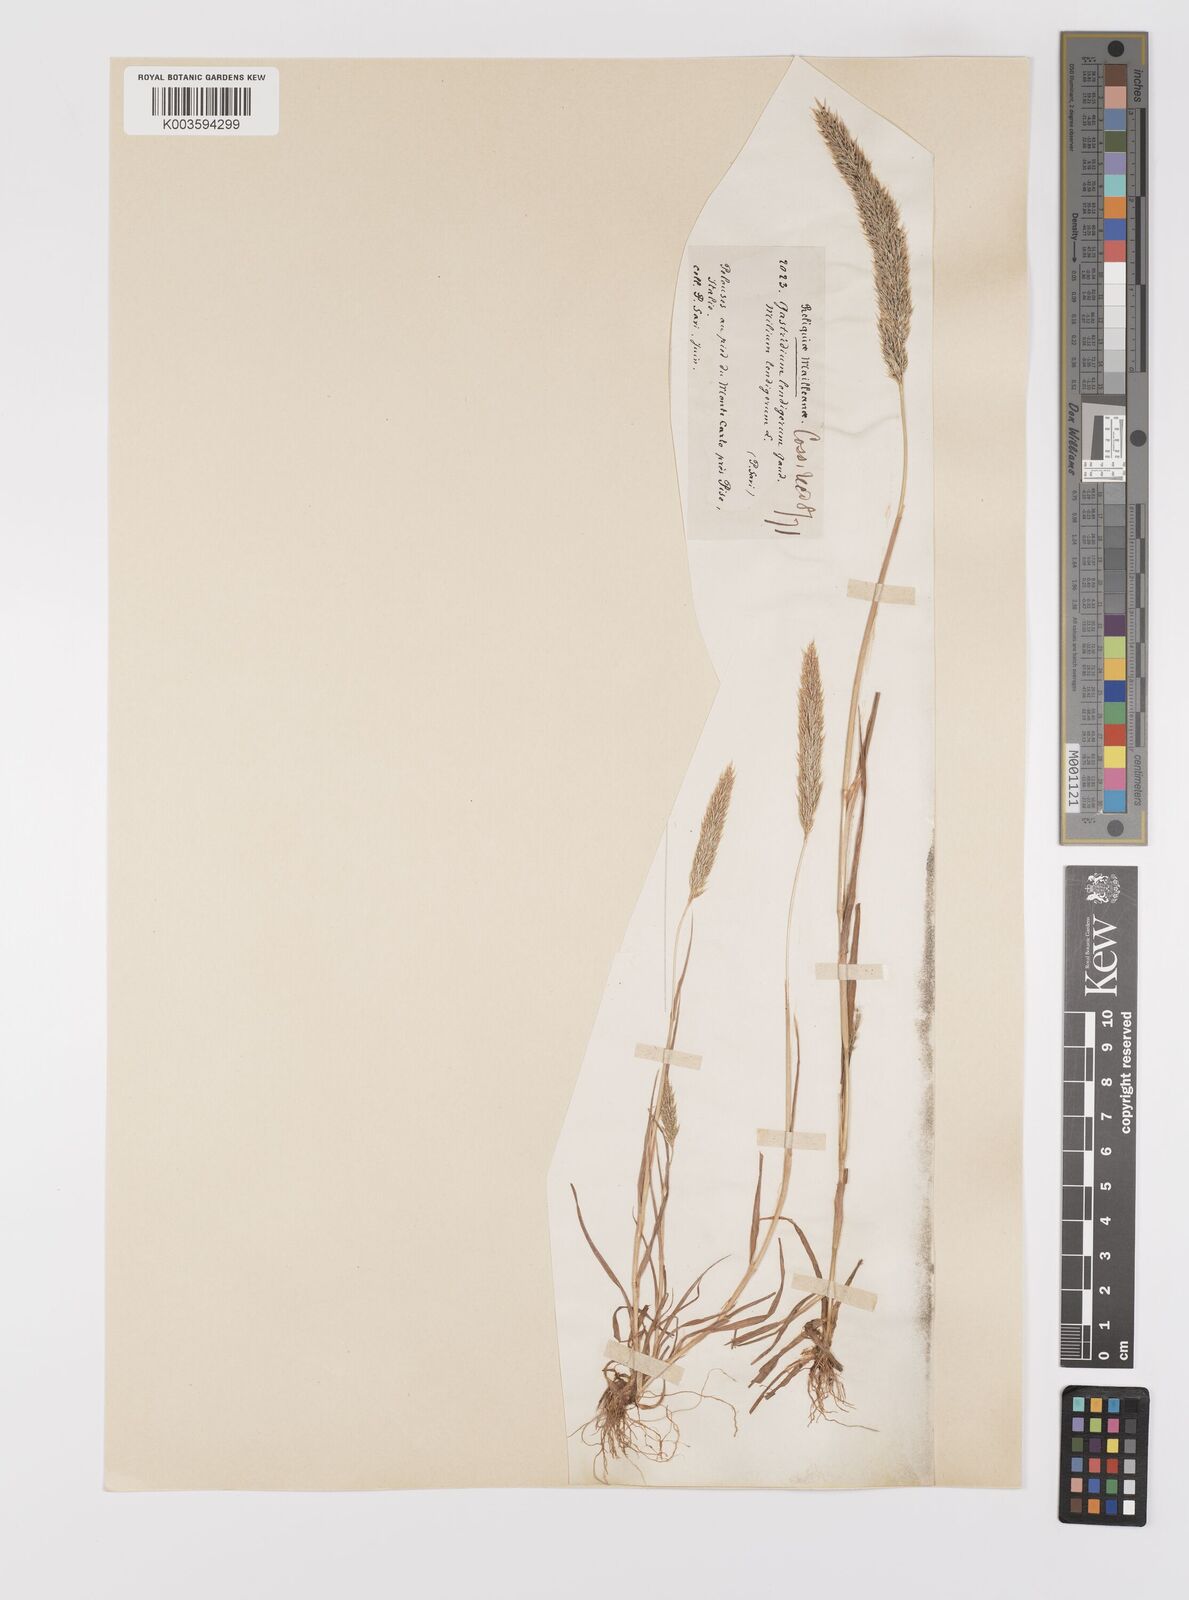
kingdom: Plantae
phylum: Tracheophyta
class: Liliopsida
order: Poales
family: Poaceae
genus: Gastridium
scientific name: Gastridium ventricosum
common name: Nit-grass
